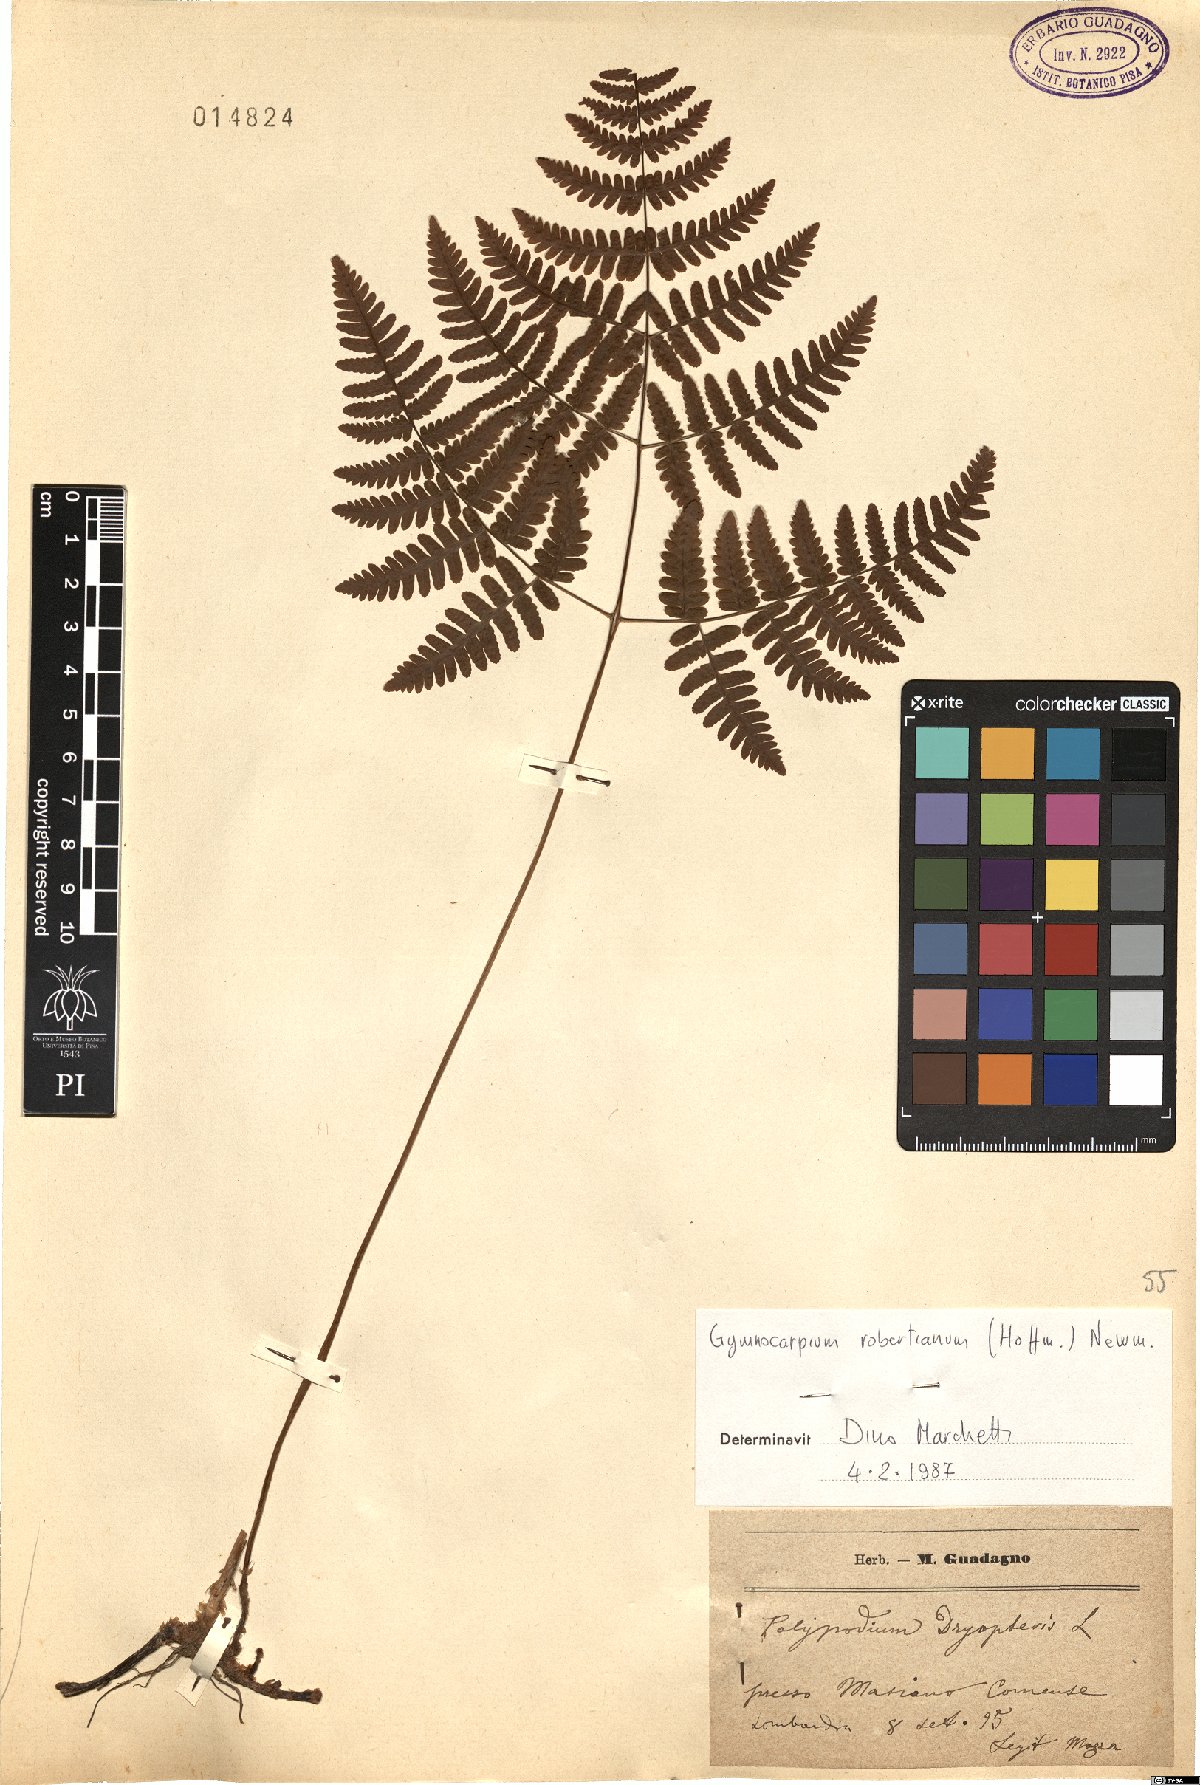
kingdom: Plantae
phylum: Tracheophyta
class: Polypodiopsida
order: Polypodiales
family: Cystopteridaceae
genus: Gymnocarpium
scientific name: Gymnocarpium robertianum
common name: Limestone fern
